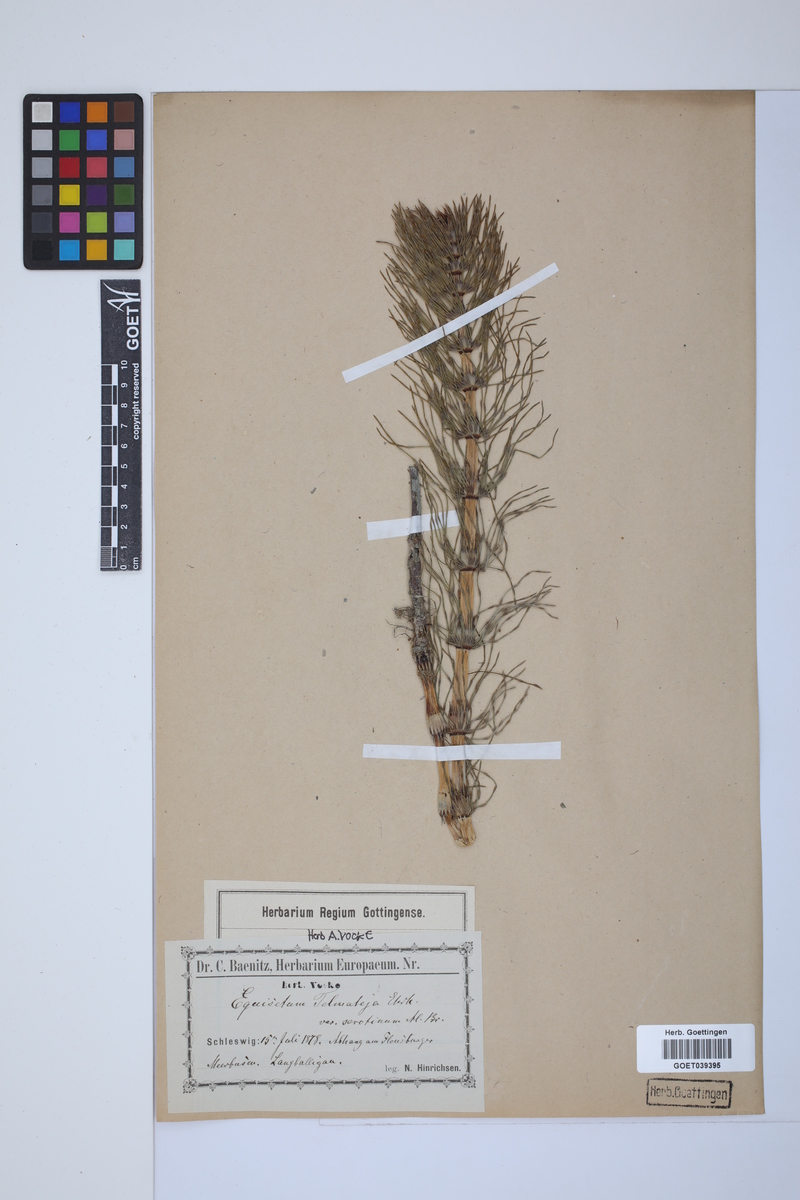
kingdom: Plantae
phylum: Tracheophyta
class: Polypodiopsida
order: Equisetales
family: Equisetaceae
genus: Equisetum
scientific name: Equisetum telmateia
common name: Great horsetail
